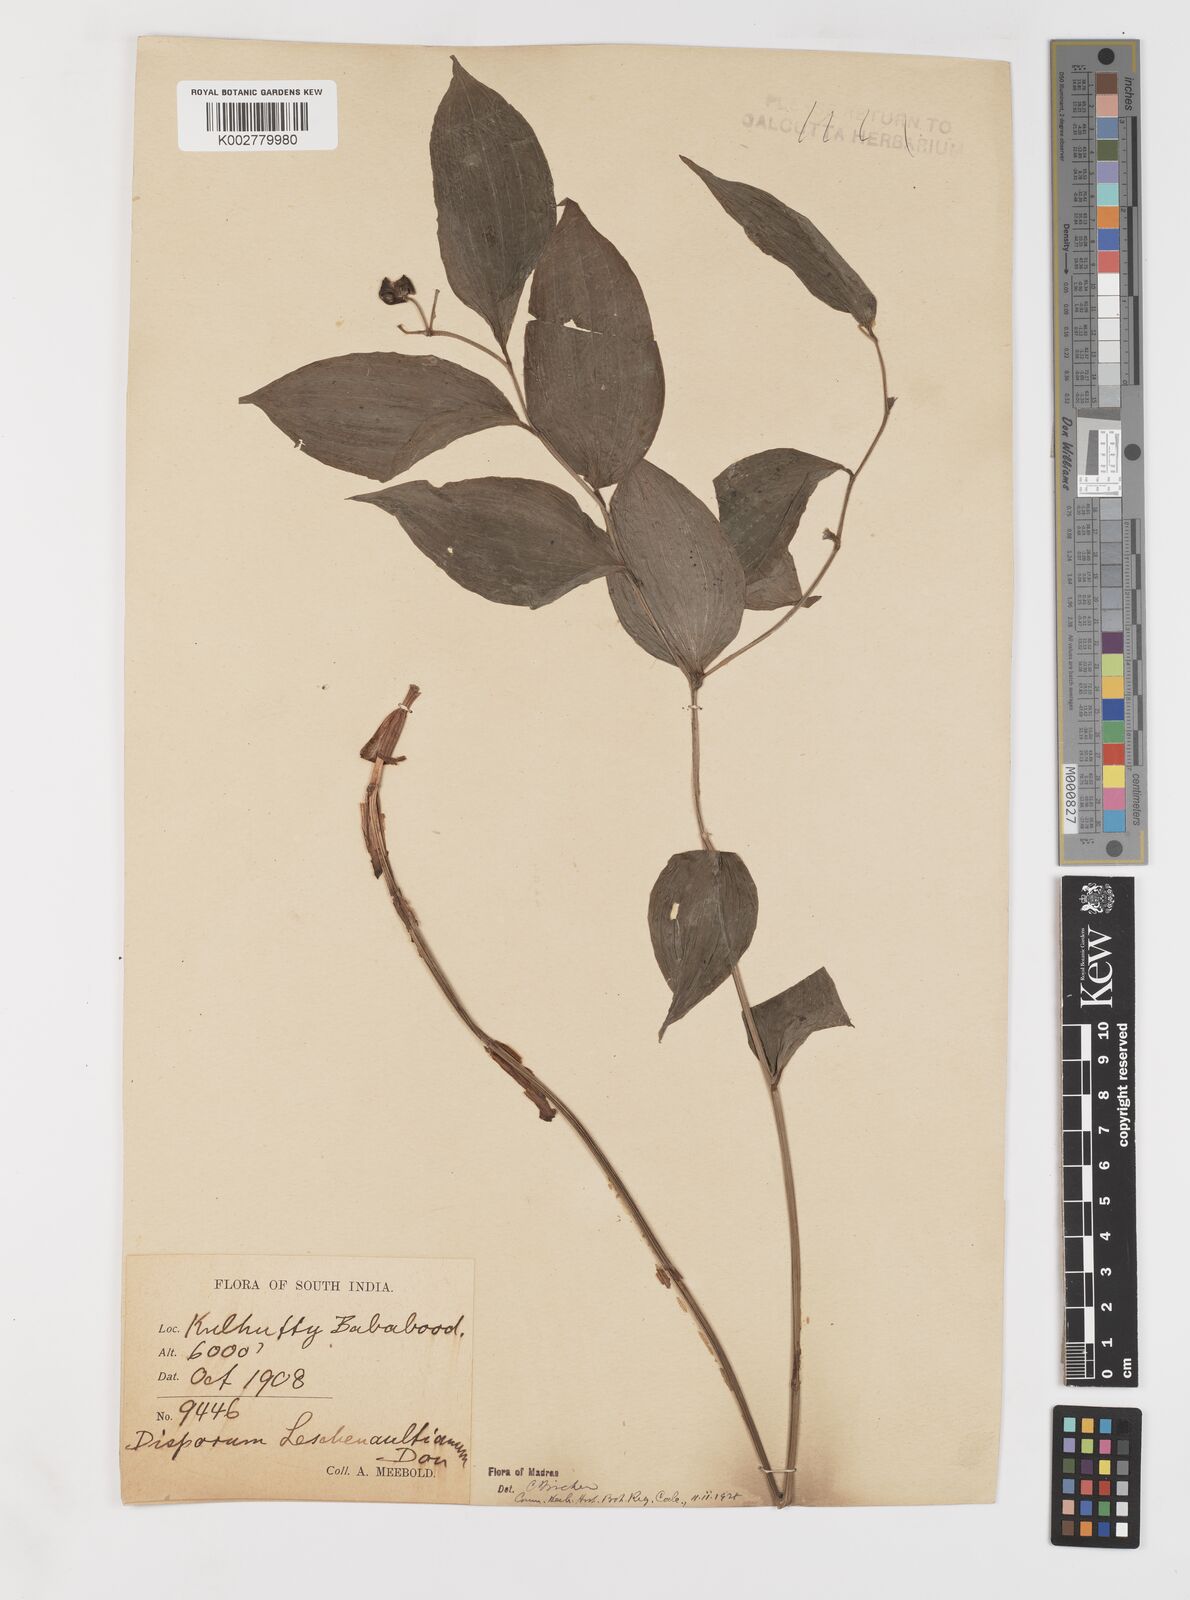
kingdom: Plantae
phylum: Tracheophyta
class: Liliopsida
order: Liliales
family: Colchicaceae
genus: Disporum
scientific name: Disporum cantoniense
